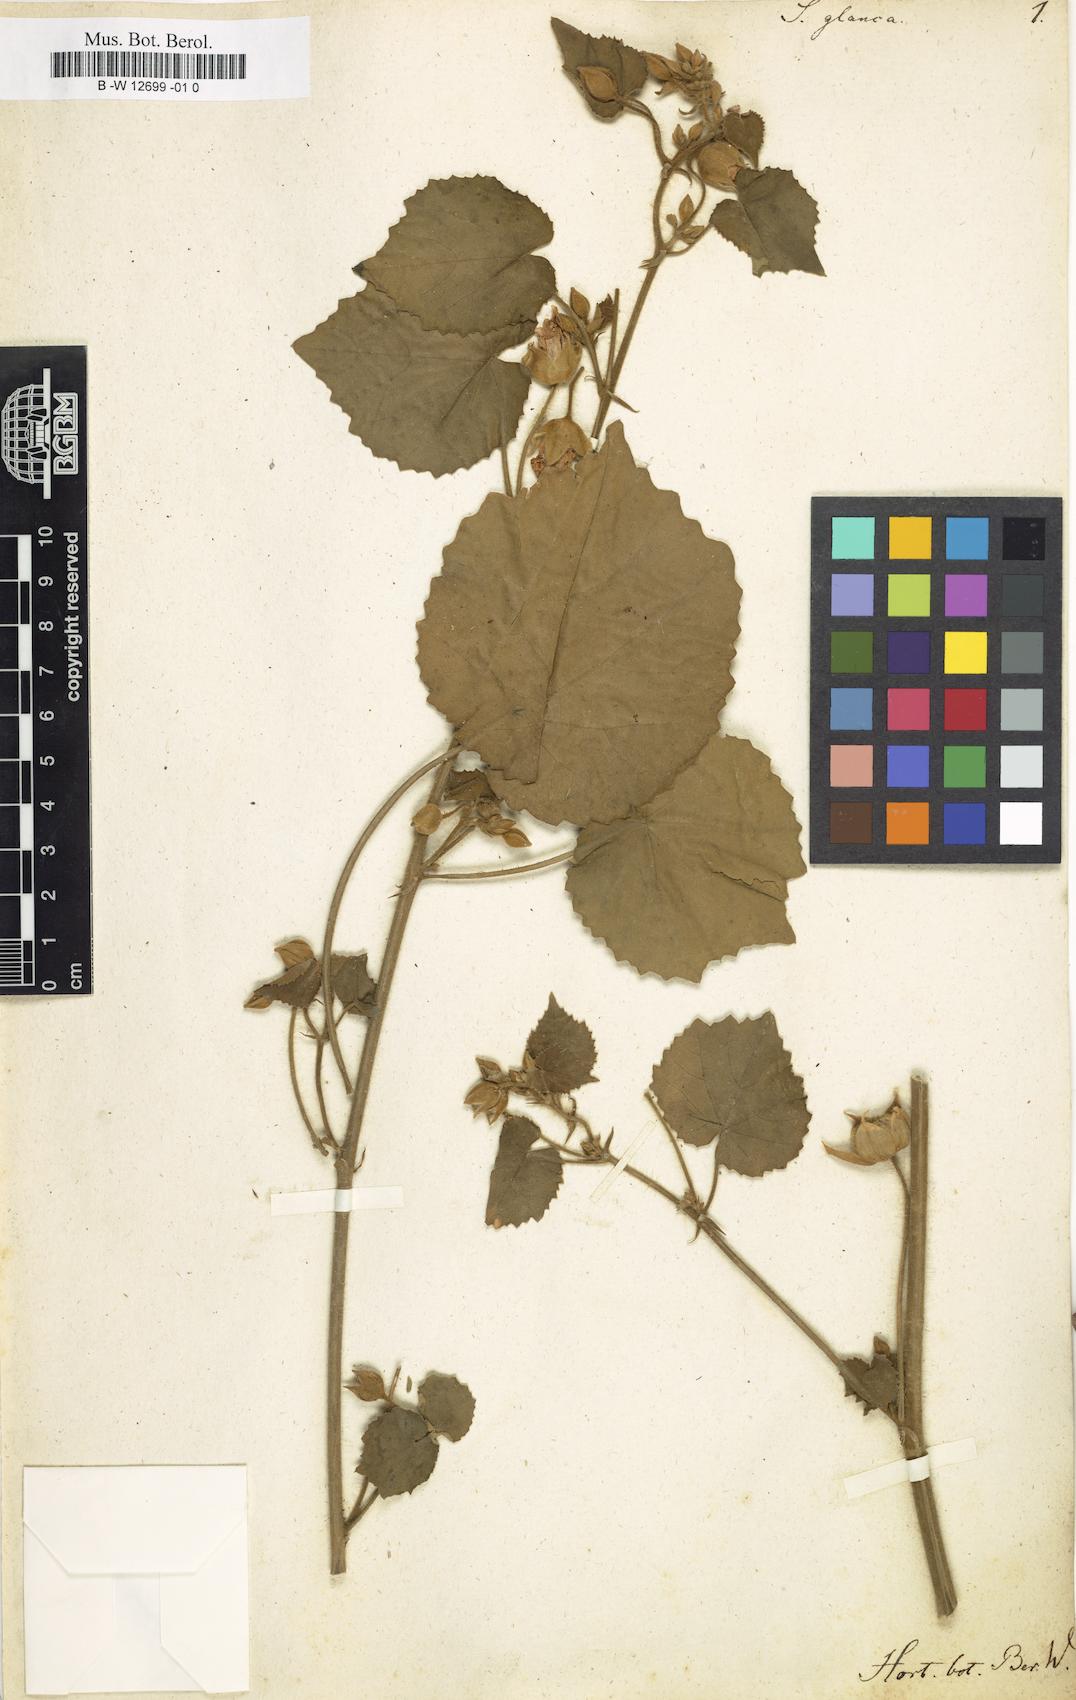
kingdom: Plantae
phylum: Tracheophyta
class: Magnoliopsida
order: Malvales
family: Malvaceae
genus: Abutilon
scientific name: Abutilon pannosum
